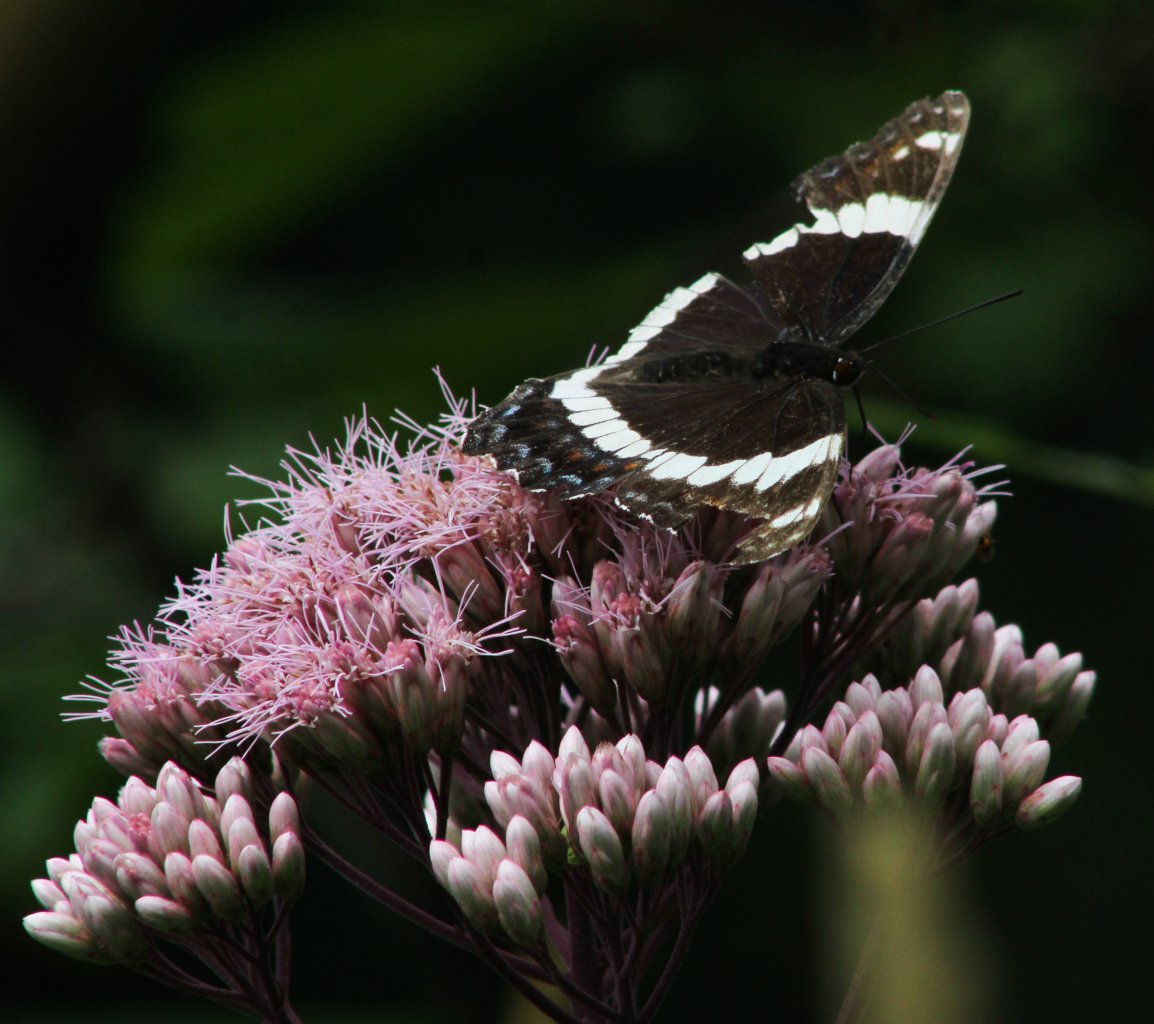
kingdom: Animalia
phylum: Arthropoda
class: Insecta
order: Lepidoptera
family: Nymphalidae
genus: Limenitis
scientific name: Limenitis arthemis
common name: Red-spotted Admiral
